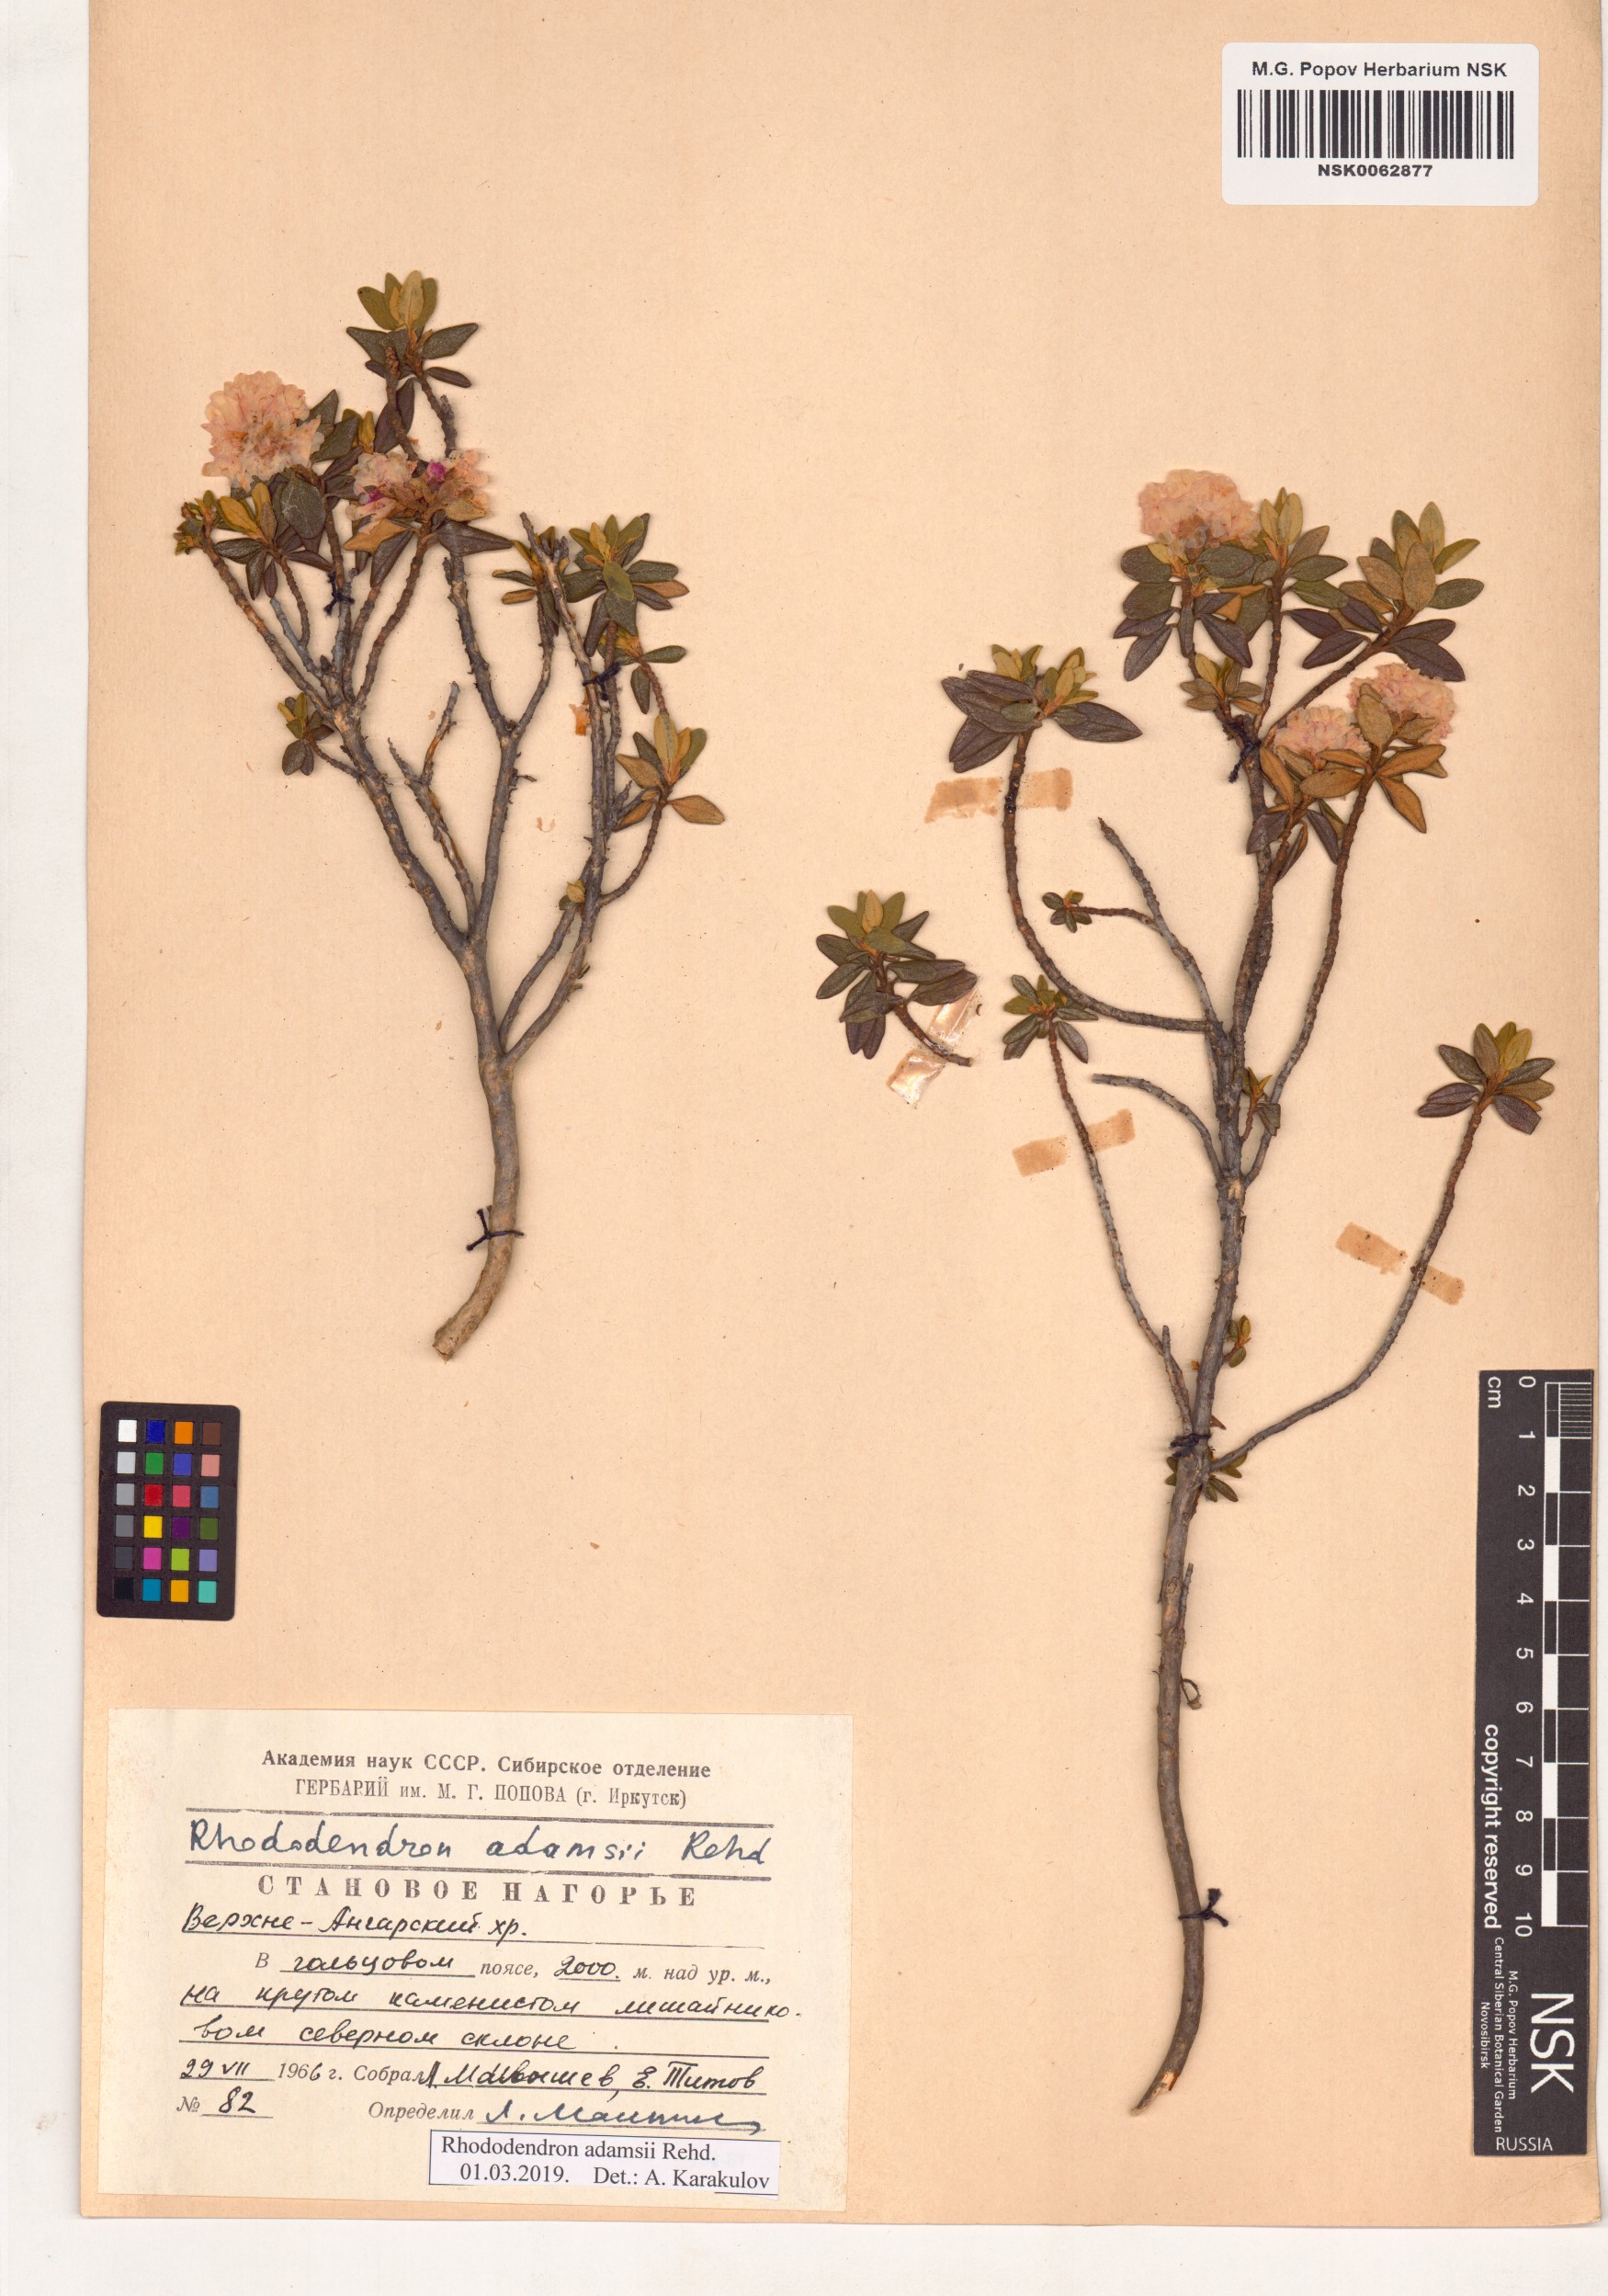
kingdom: Plantae
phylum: Tracheophyta
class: Magnoliopsida
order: Ericales
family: Ericaceae
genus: Rhododendron
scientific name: Rhododendron adamsii
